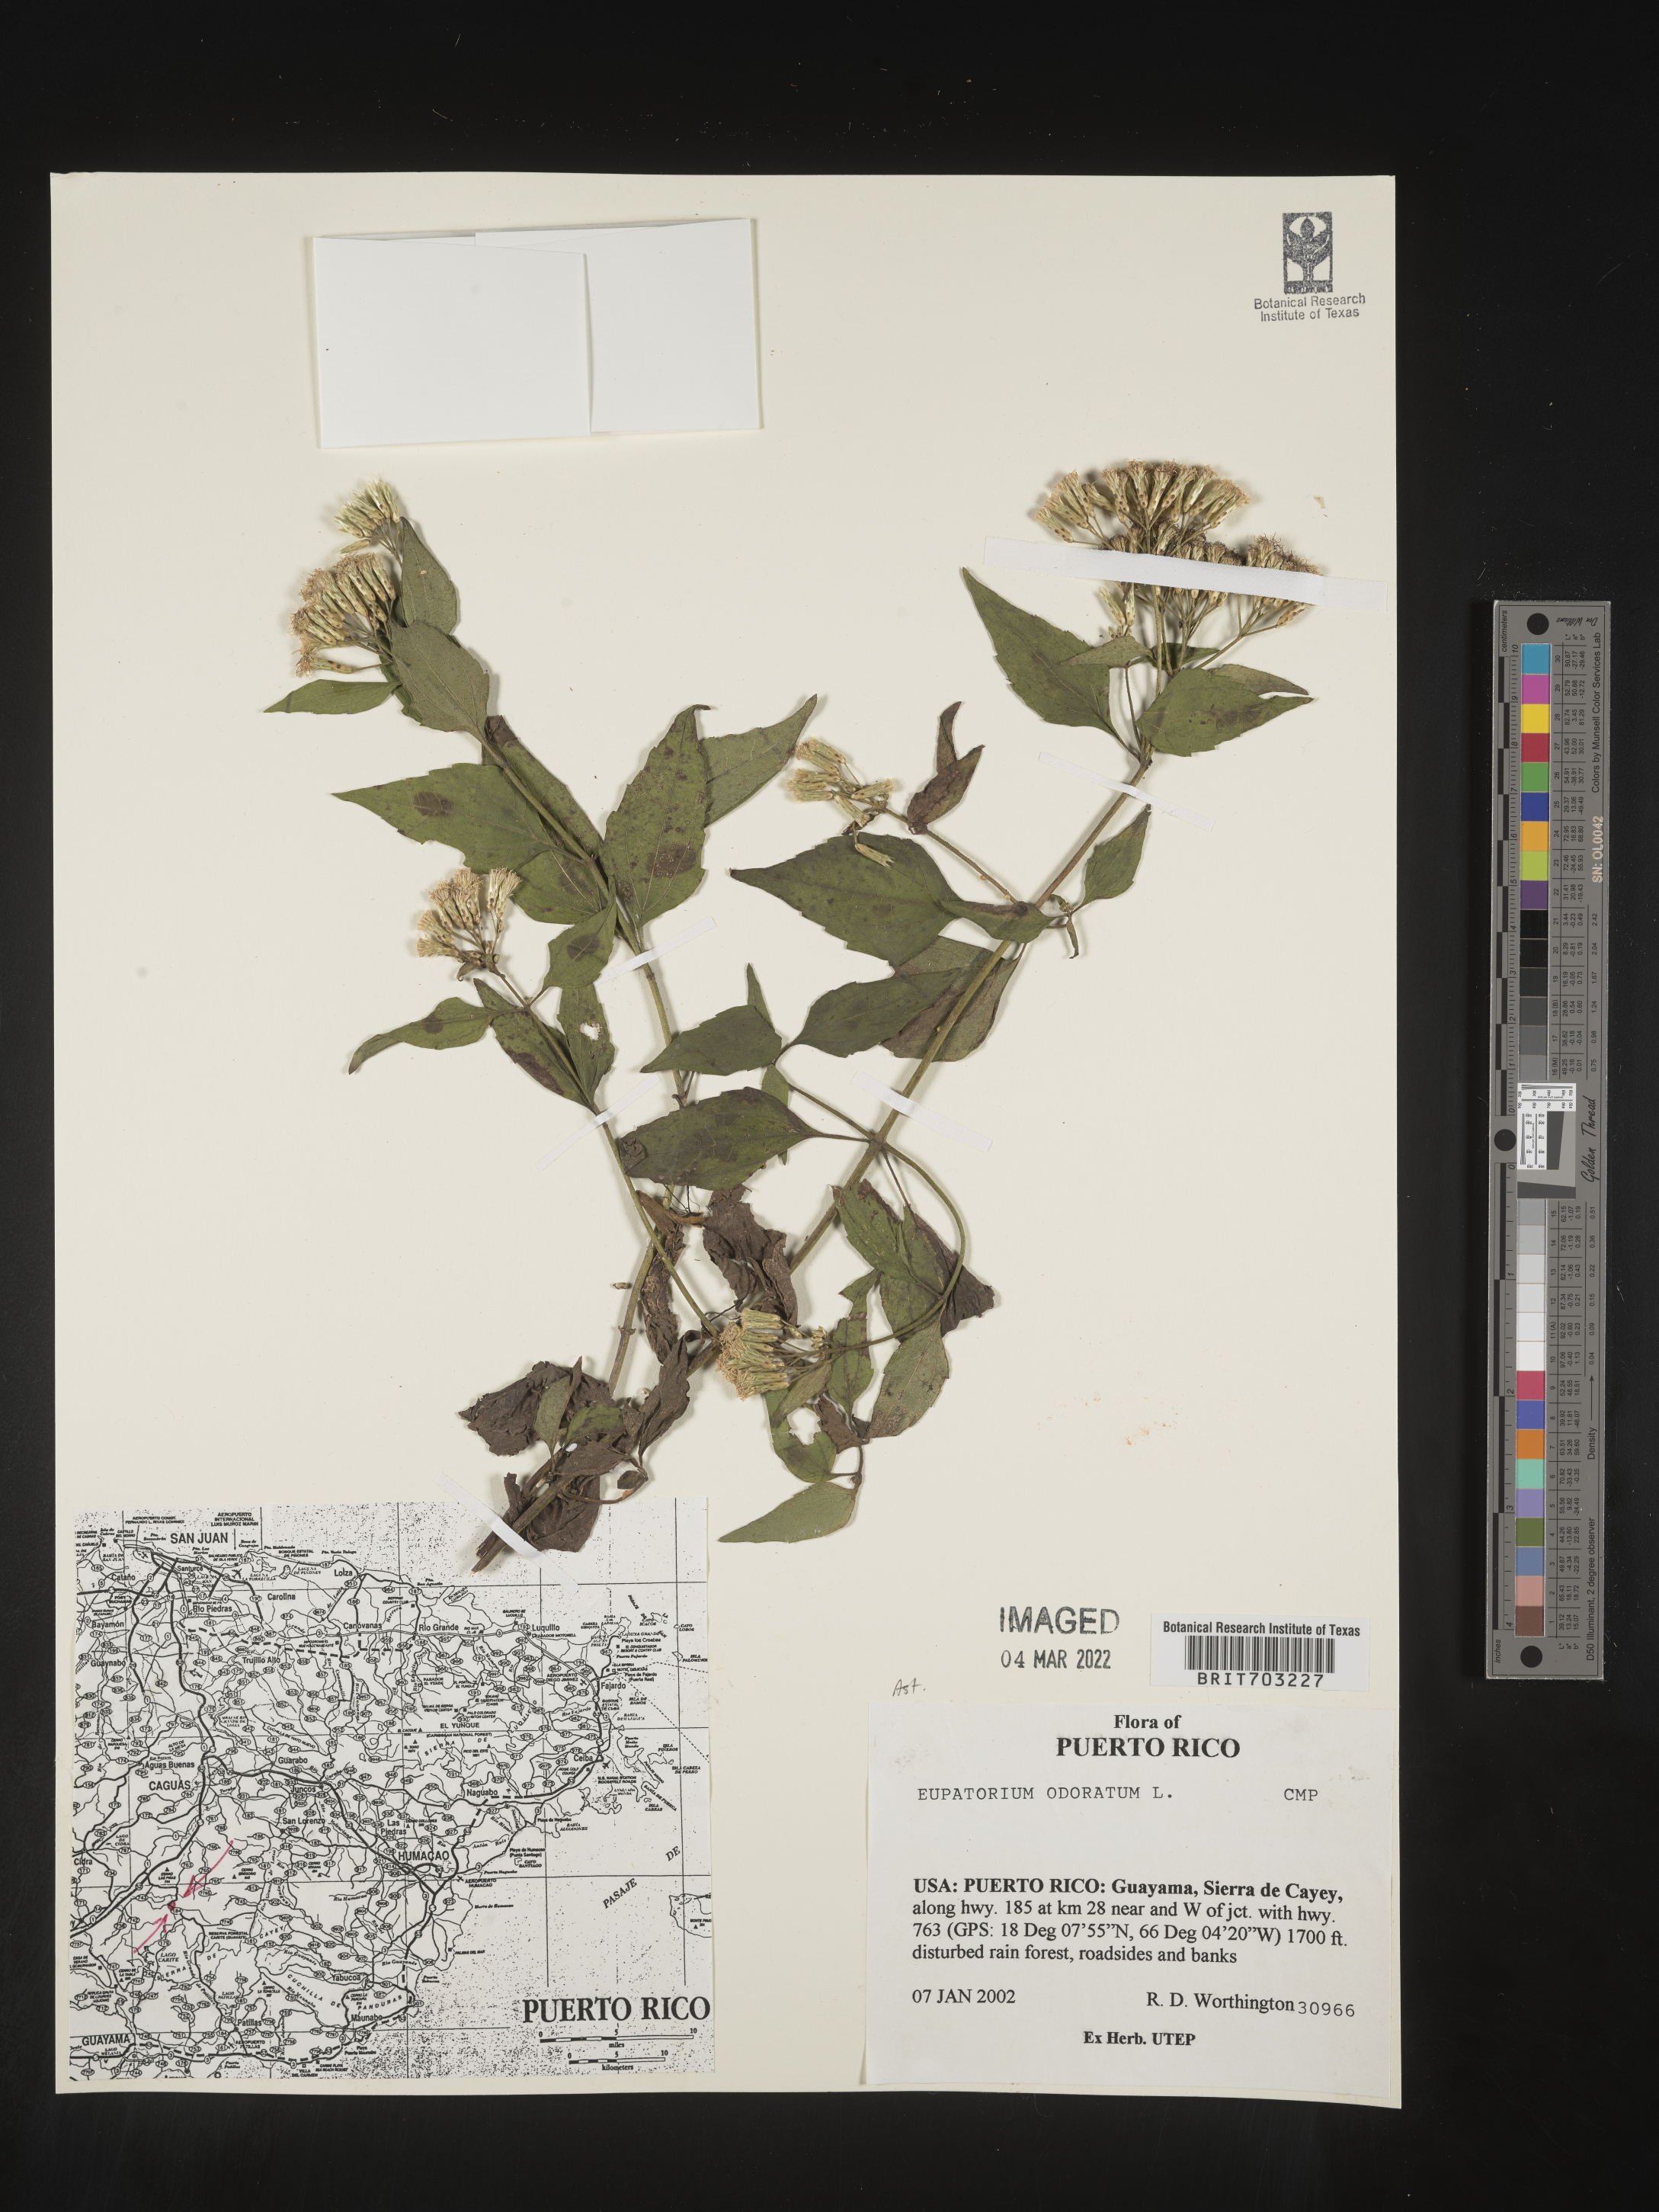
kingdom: Plantae
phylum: Tracheophyta
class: Magnoliopsida
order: Asterales
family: Asteraceae
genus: Eupatorium
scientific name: Eupatorium
